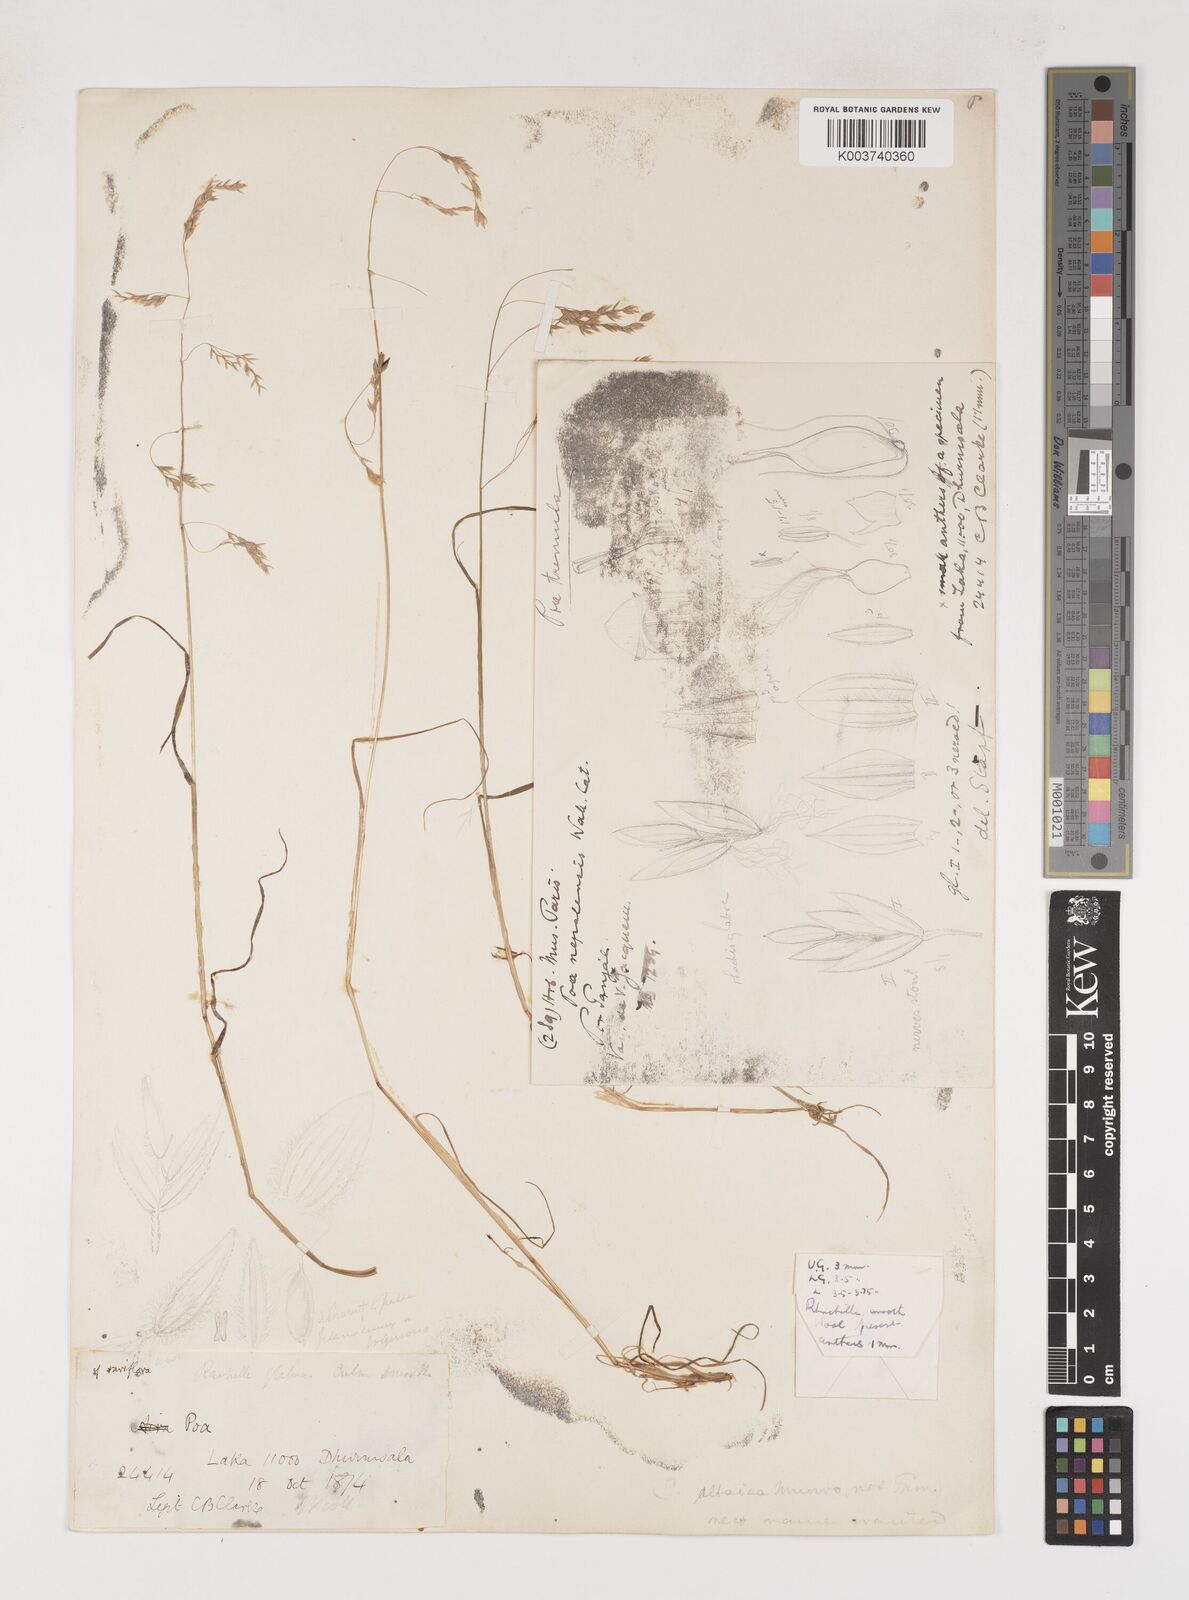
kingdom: Plantae
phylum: Tracheophyta
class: Liliopsida
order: Poales
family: Poaceae
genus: Poa
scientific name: Poa stapfiana
